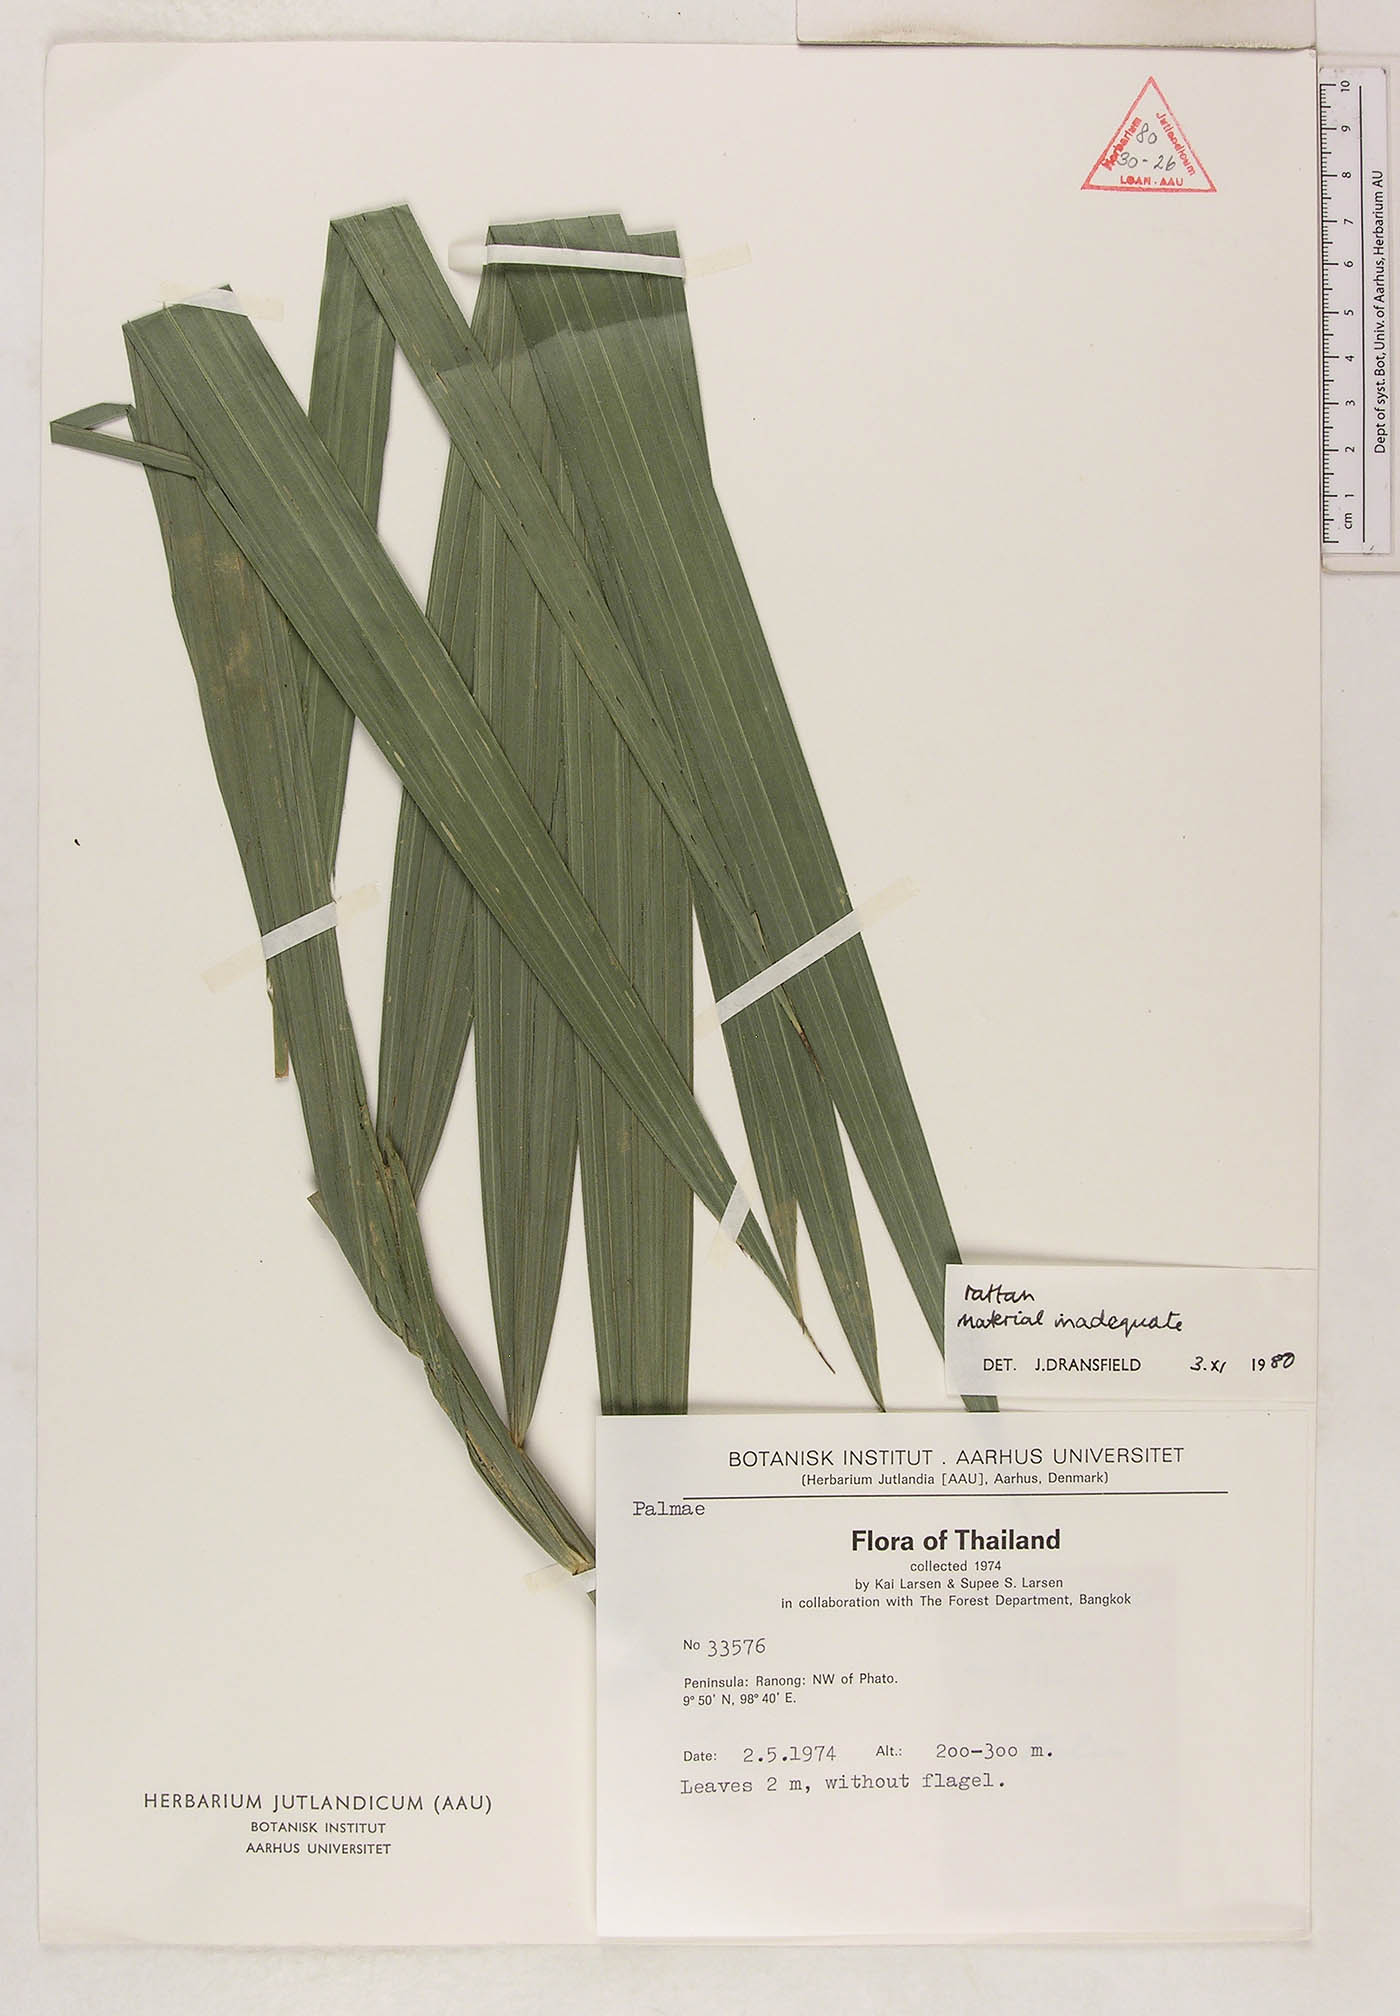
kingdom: Plantae
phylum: Tracheophyta
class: Liliopsida
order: Arecales
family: Arecaceae
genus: Calamus
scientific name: Calamus peregrinus
